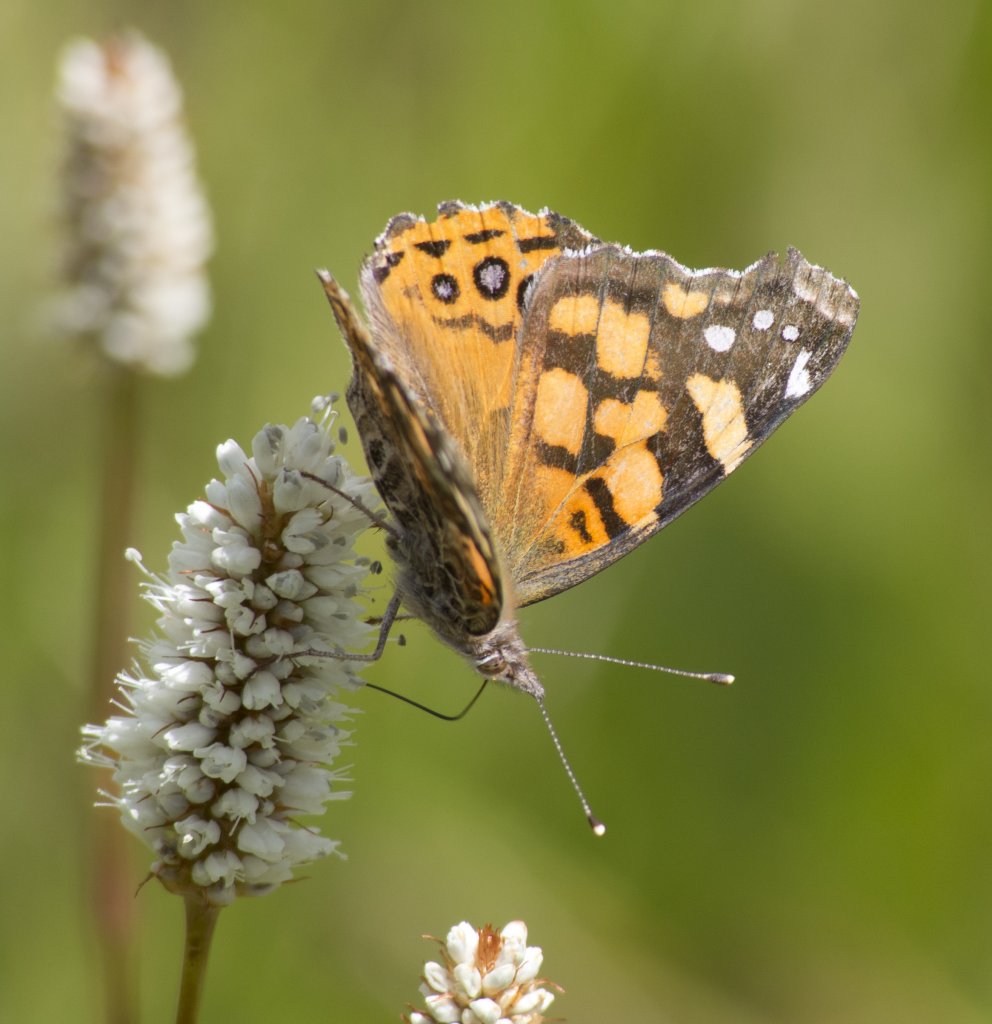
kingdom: Animalia
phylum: Arthropoda
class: Insecta
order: Lepidoptera
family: Nymphalidae
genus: Vanessa
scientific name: Vanessa annabella
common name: West Coast Lady
